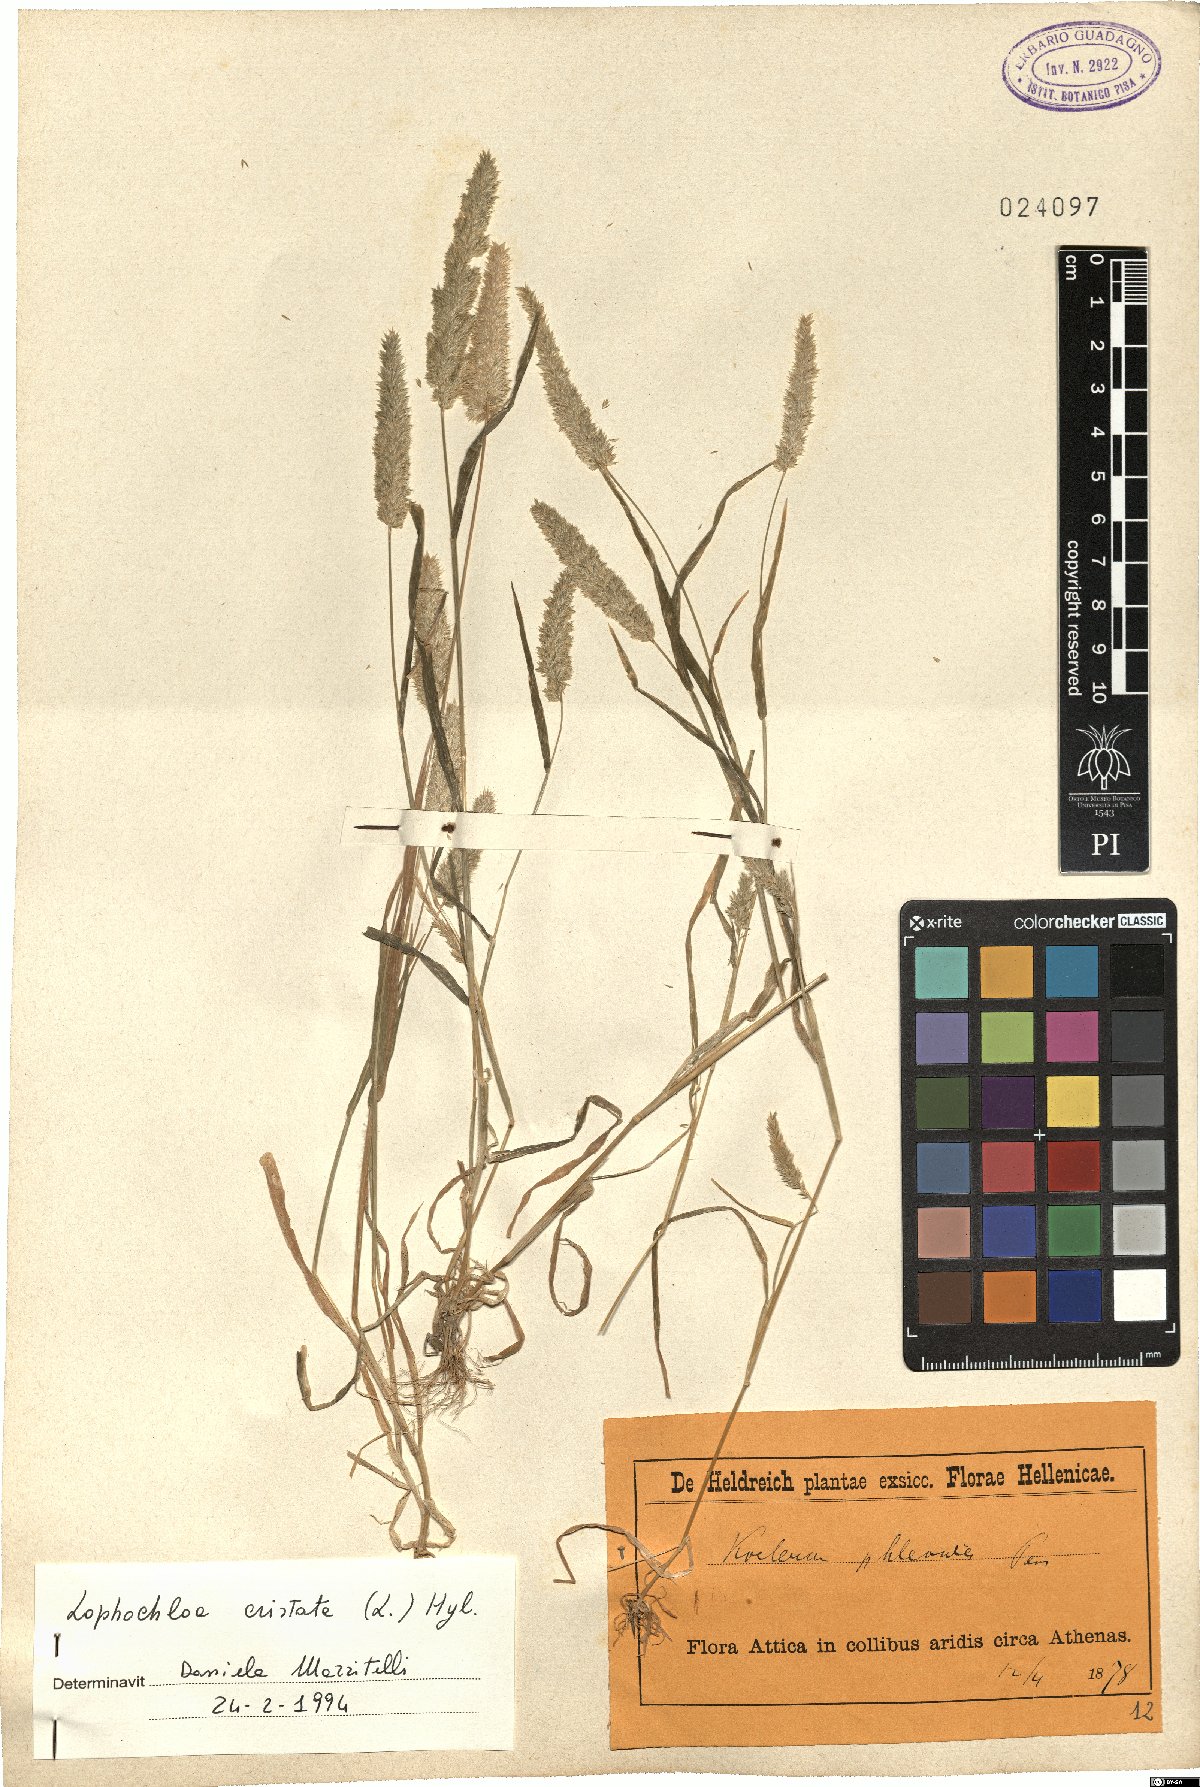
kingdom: Plantae
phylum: Tracheophyta
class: Liliopsida
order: Poales
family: Poaceae
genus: Rostraria
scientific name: Rostraria cristata
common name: Mediterranean hair-grass
